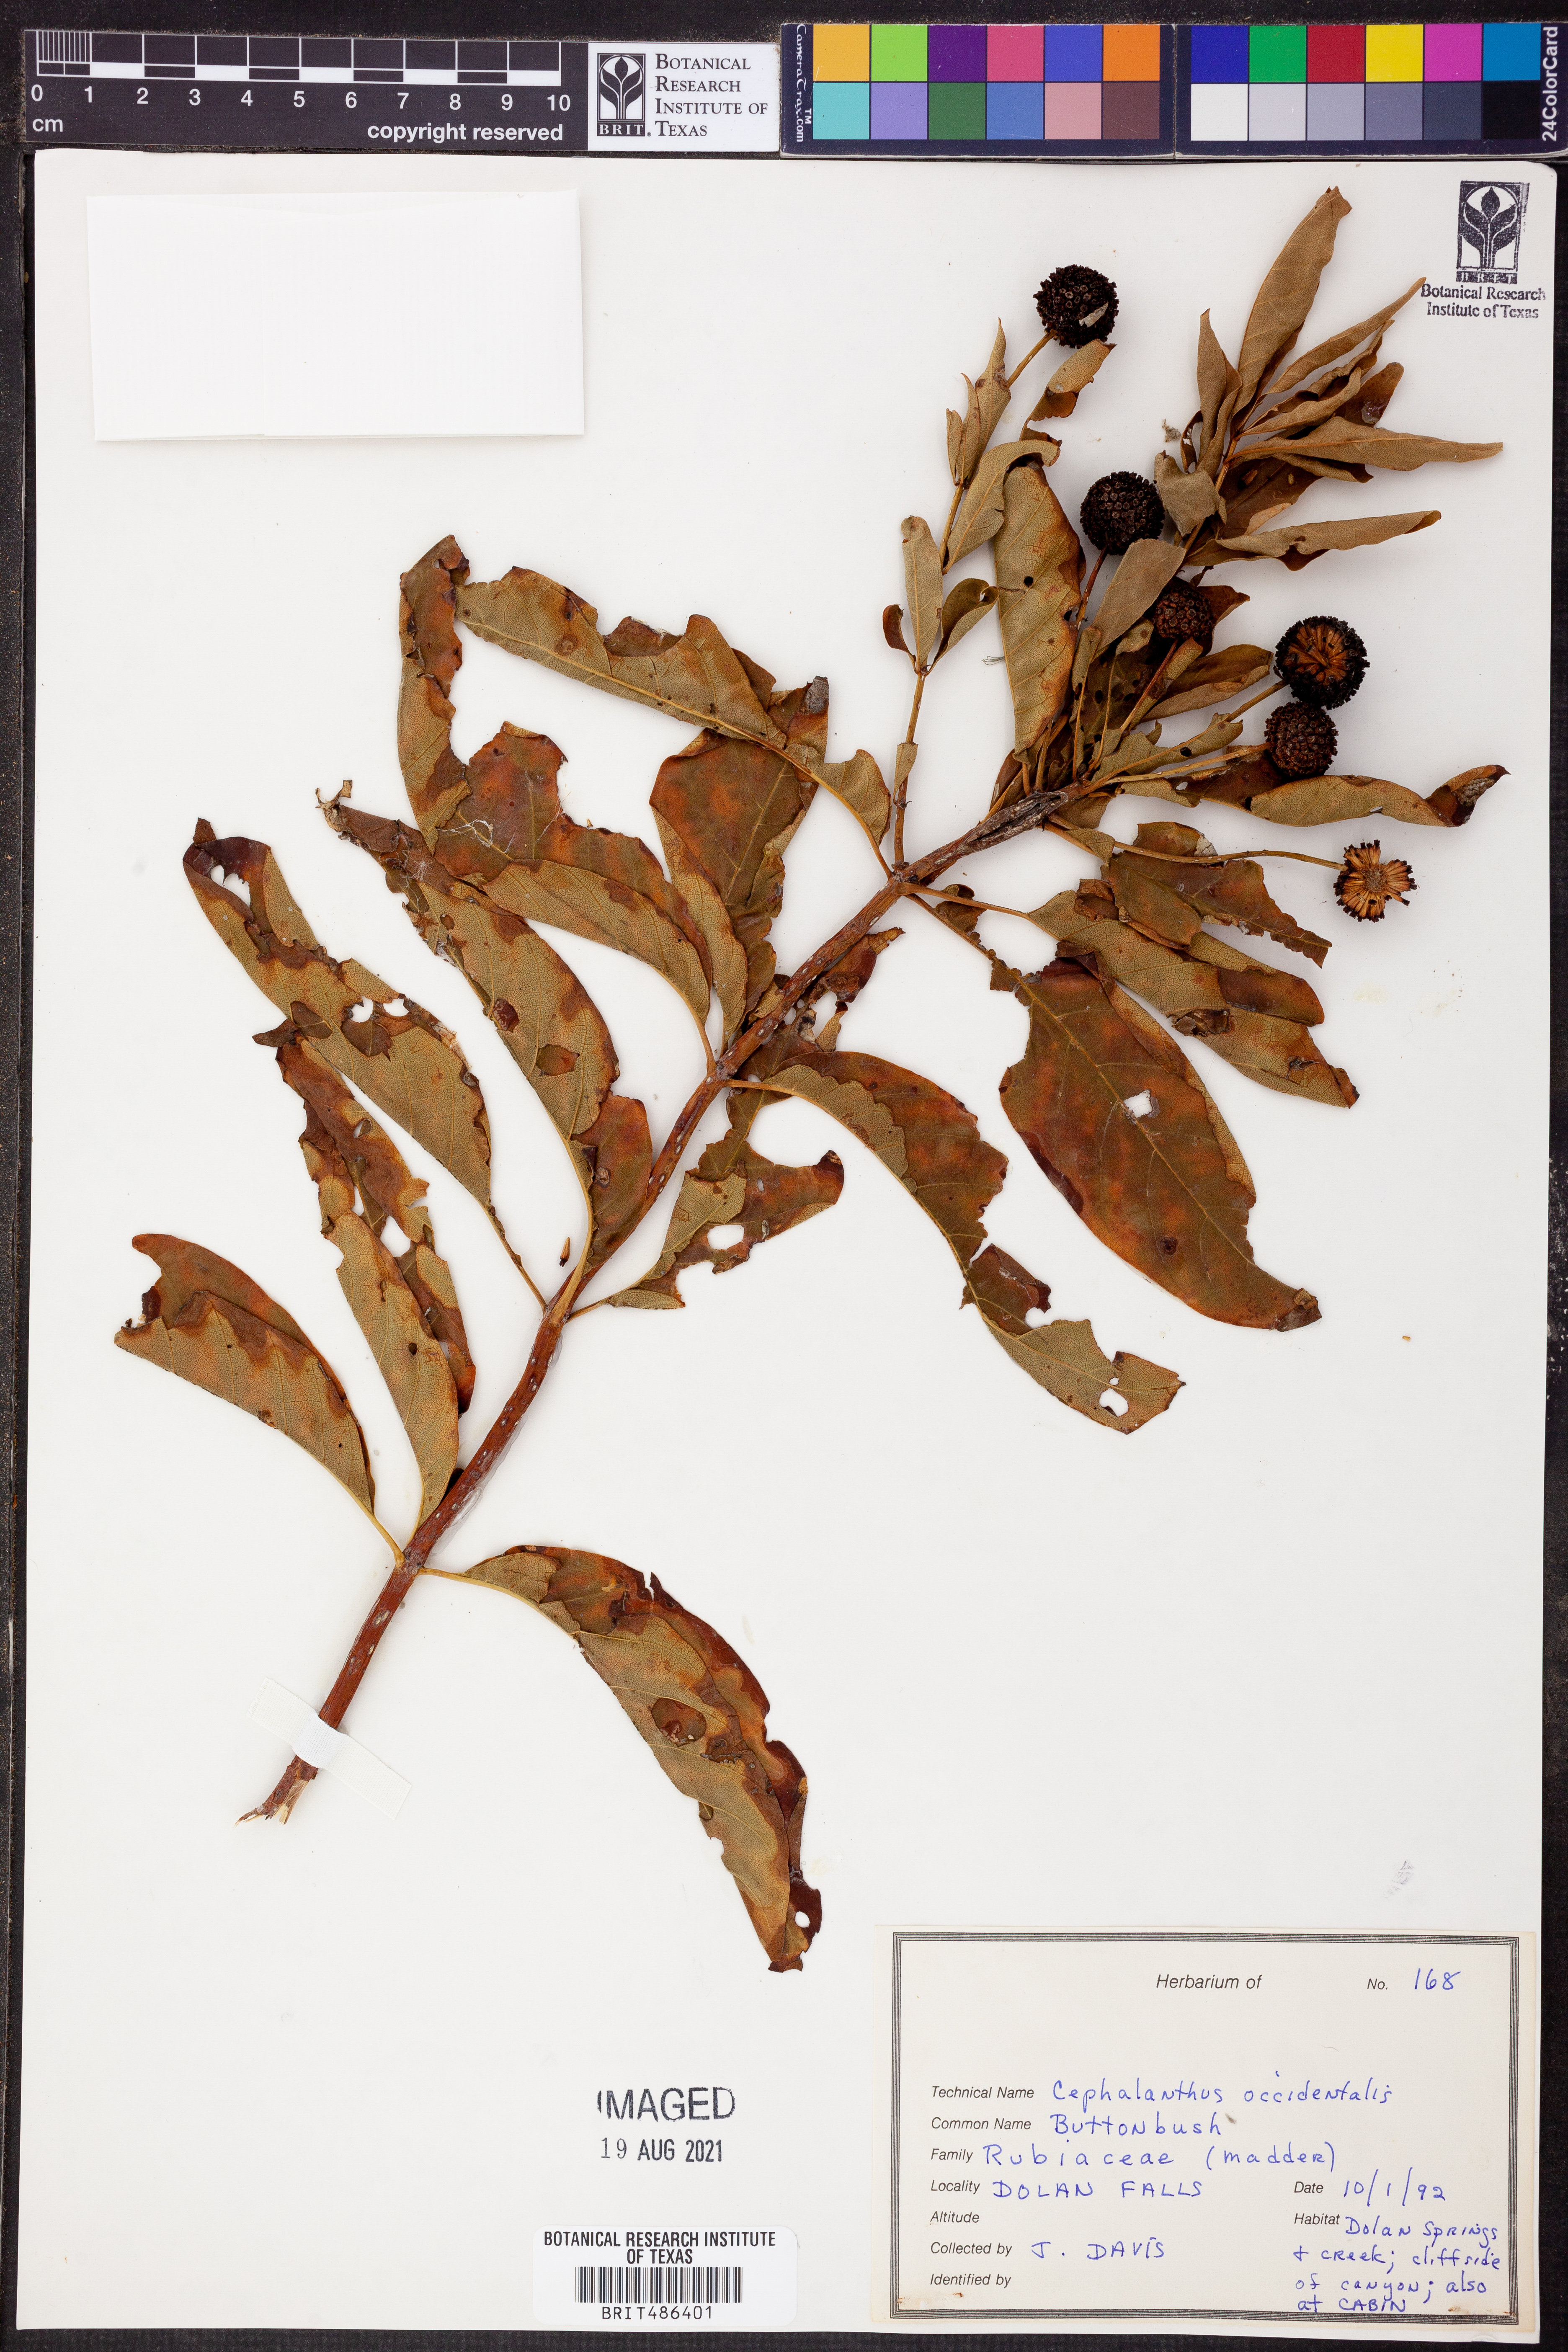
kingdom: Plantae
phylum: Tracheophyta
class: Magnoliopsida
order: Gentianales
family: Rubiaceae
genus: Cephalanthus
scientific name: Cephalanthus occidentalis
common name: Button-willow
